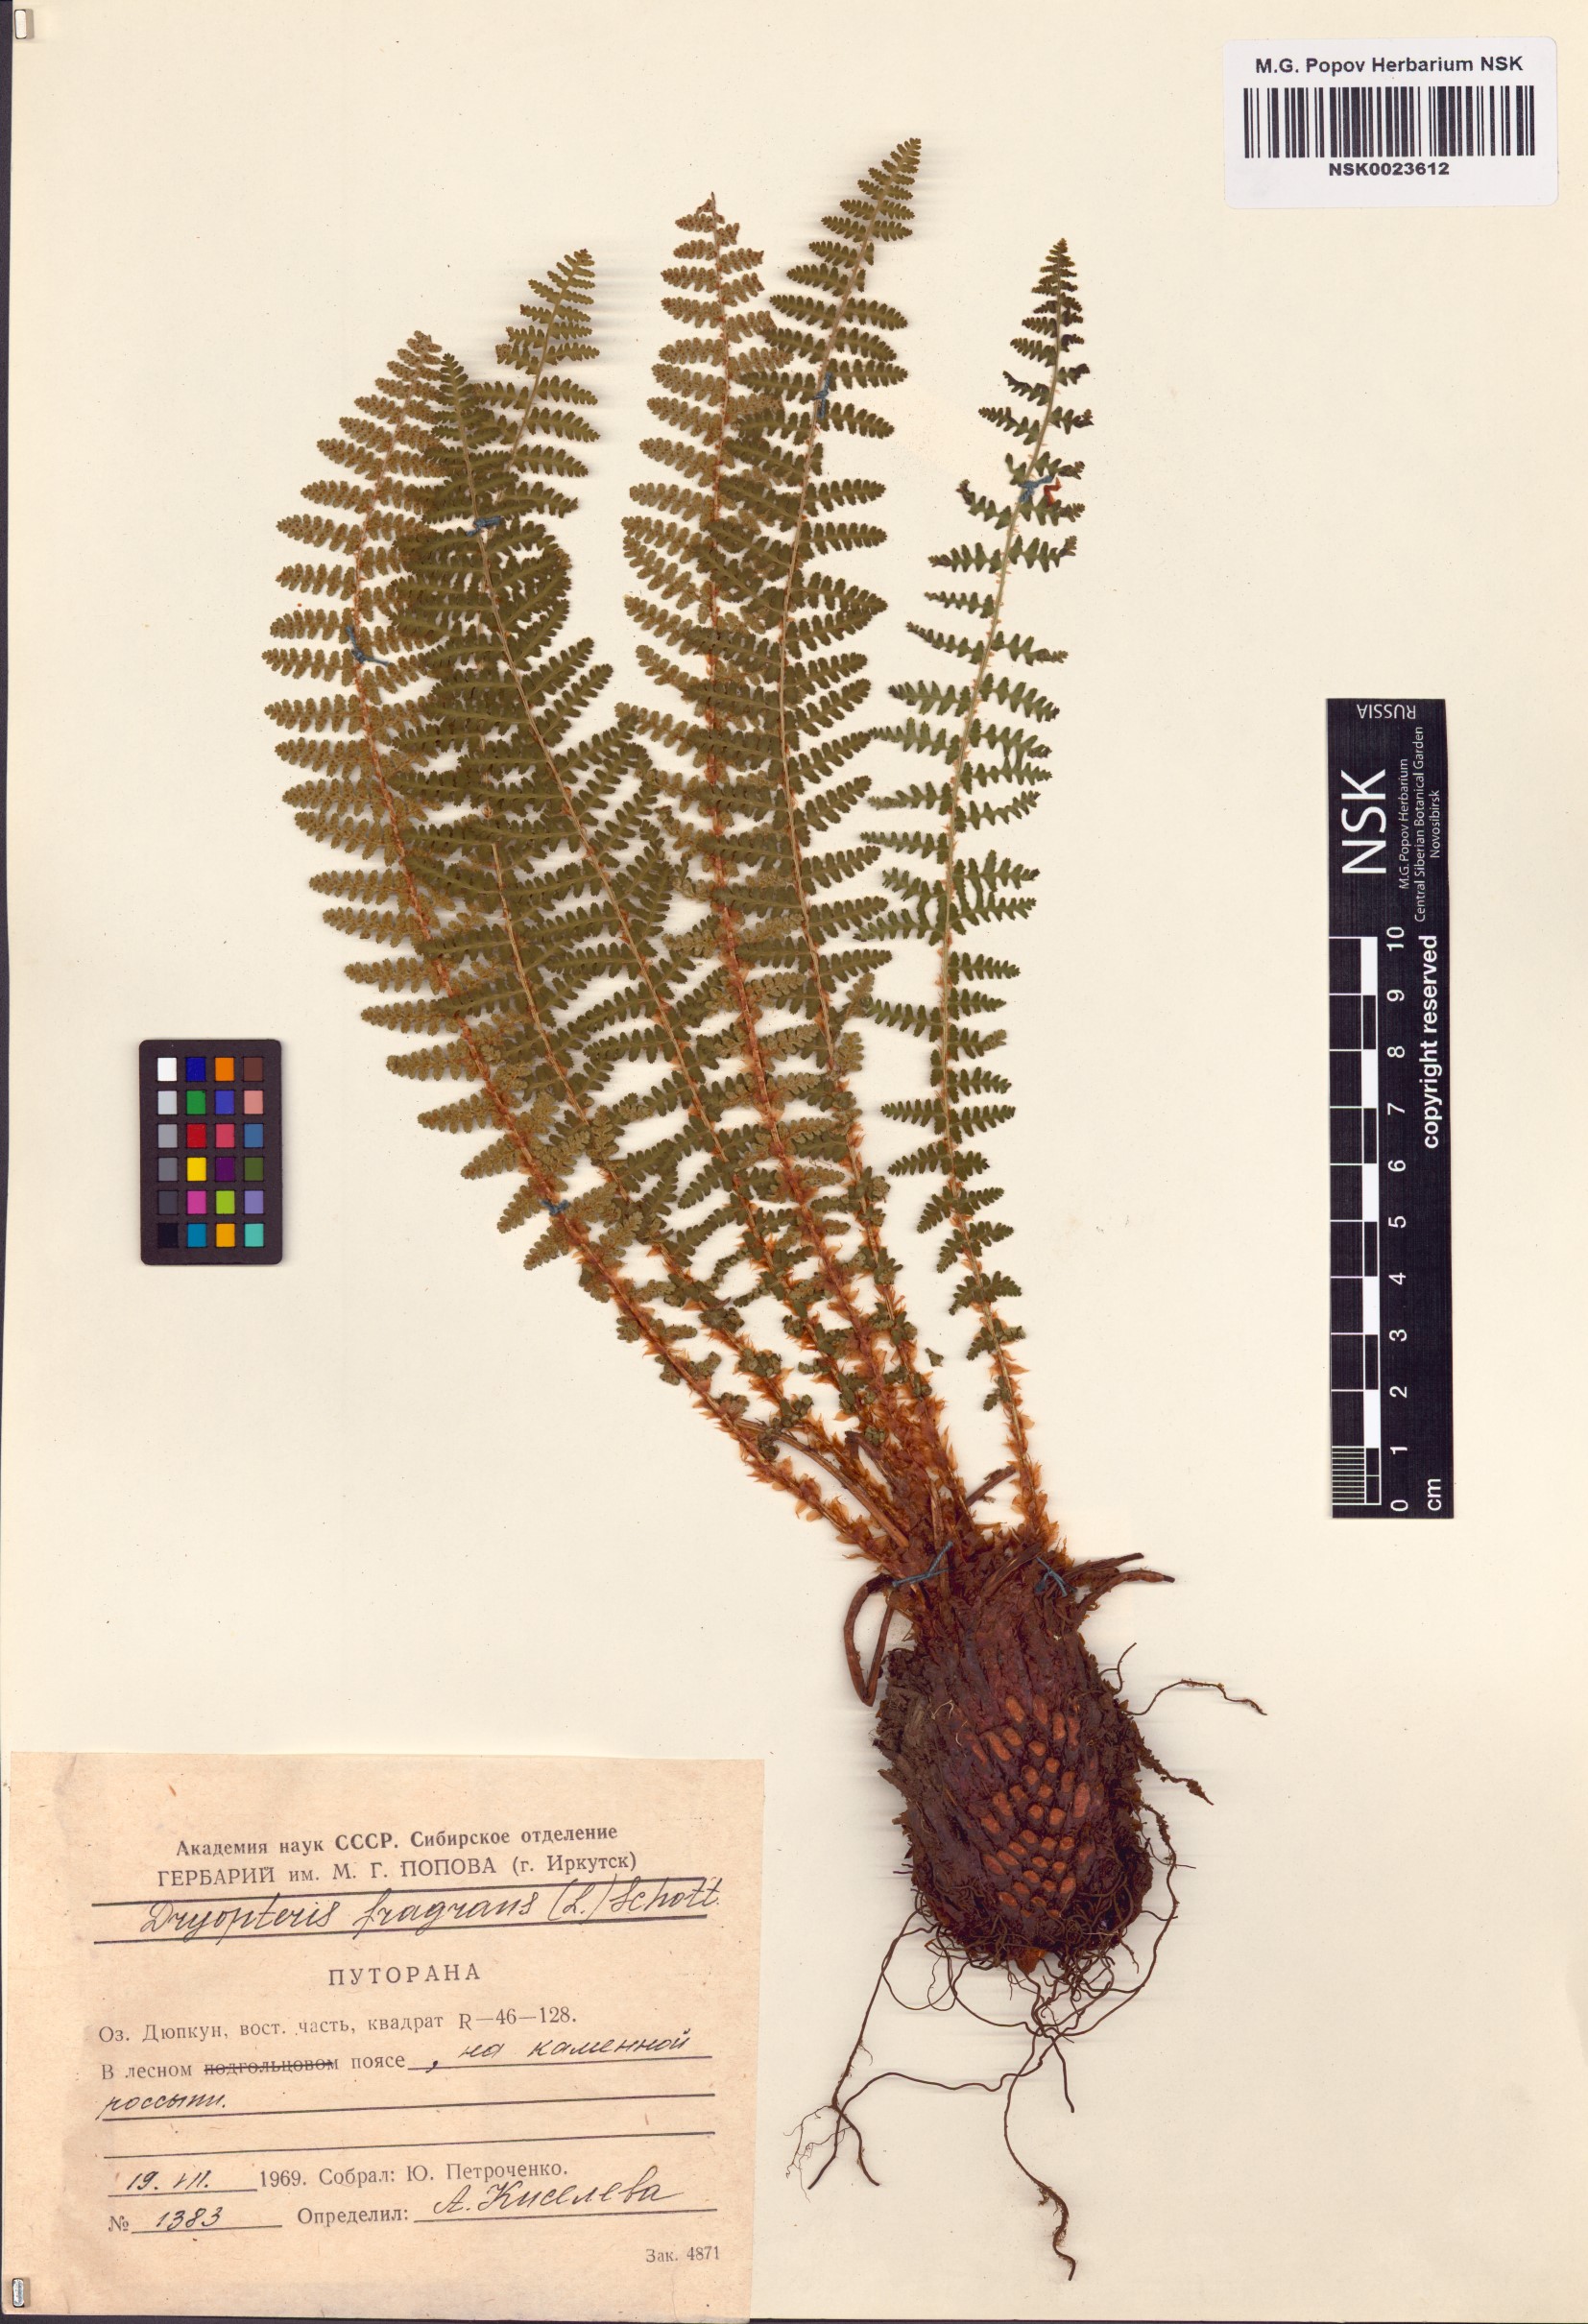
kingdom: Plantae
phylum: Tracheophyta
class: Polypodiopsida
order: Polypodiales
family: Dryopteridaceae
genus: Dryopteris
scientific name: Dryopteris fragrans
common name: Fragrant wood fern
